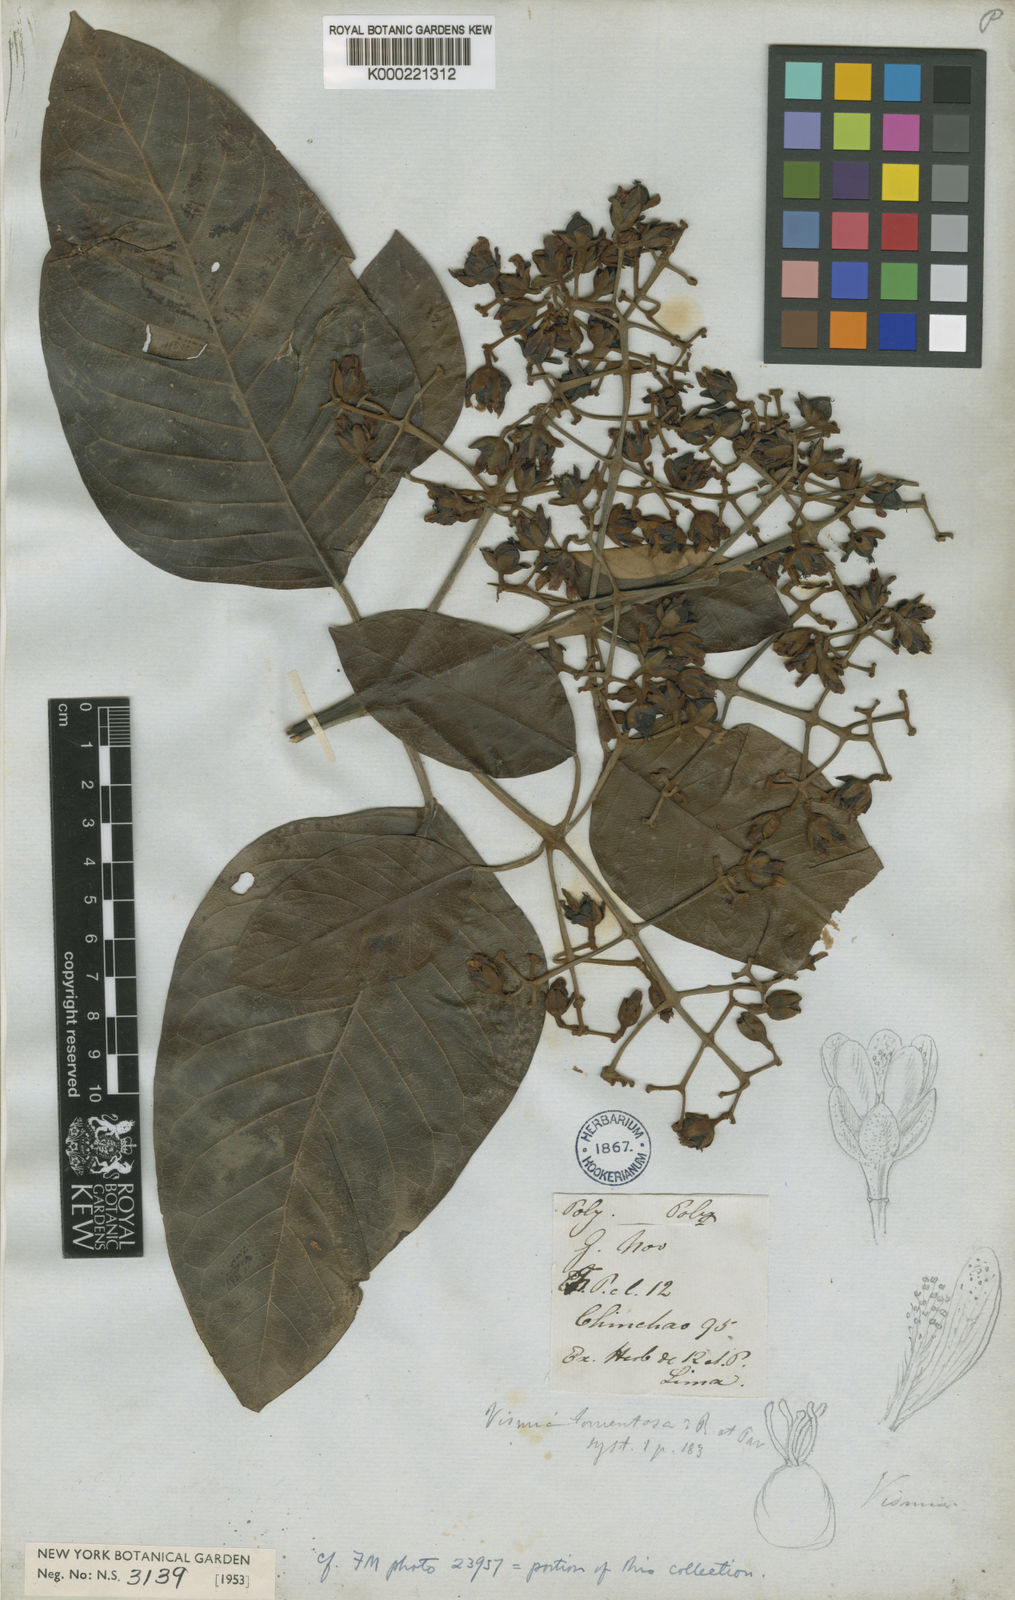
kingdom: Plantae
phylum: Tracheophyta
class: Magnoliopsida
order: Malpighiales
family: Hypericaceae
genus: Vismia
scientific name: Vismia tomentosa
